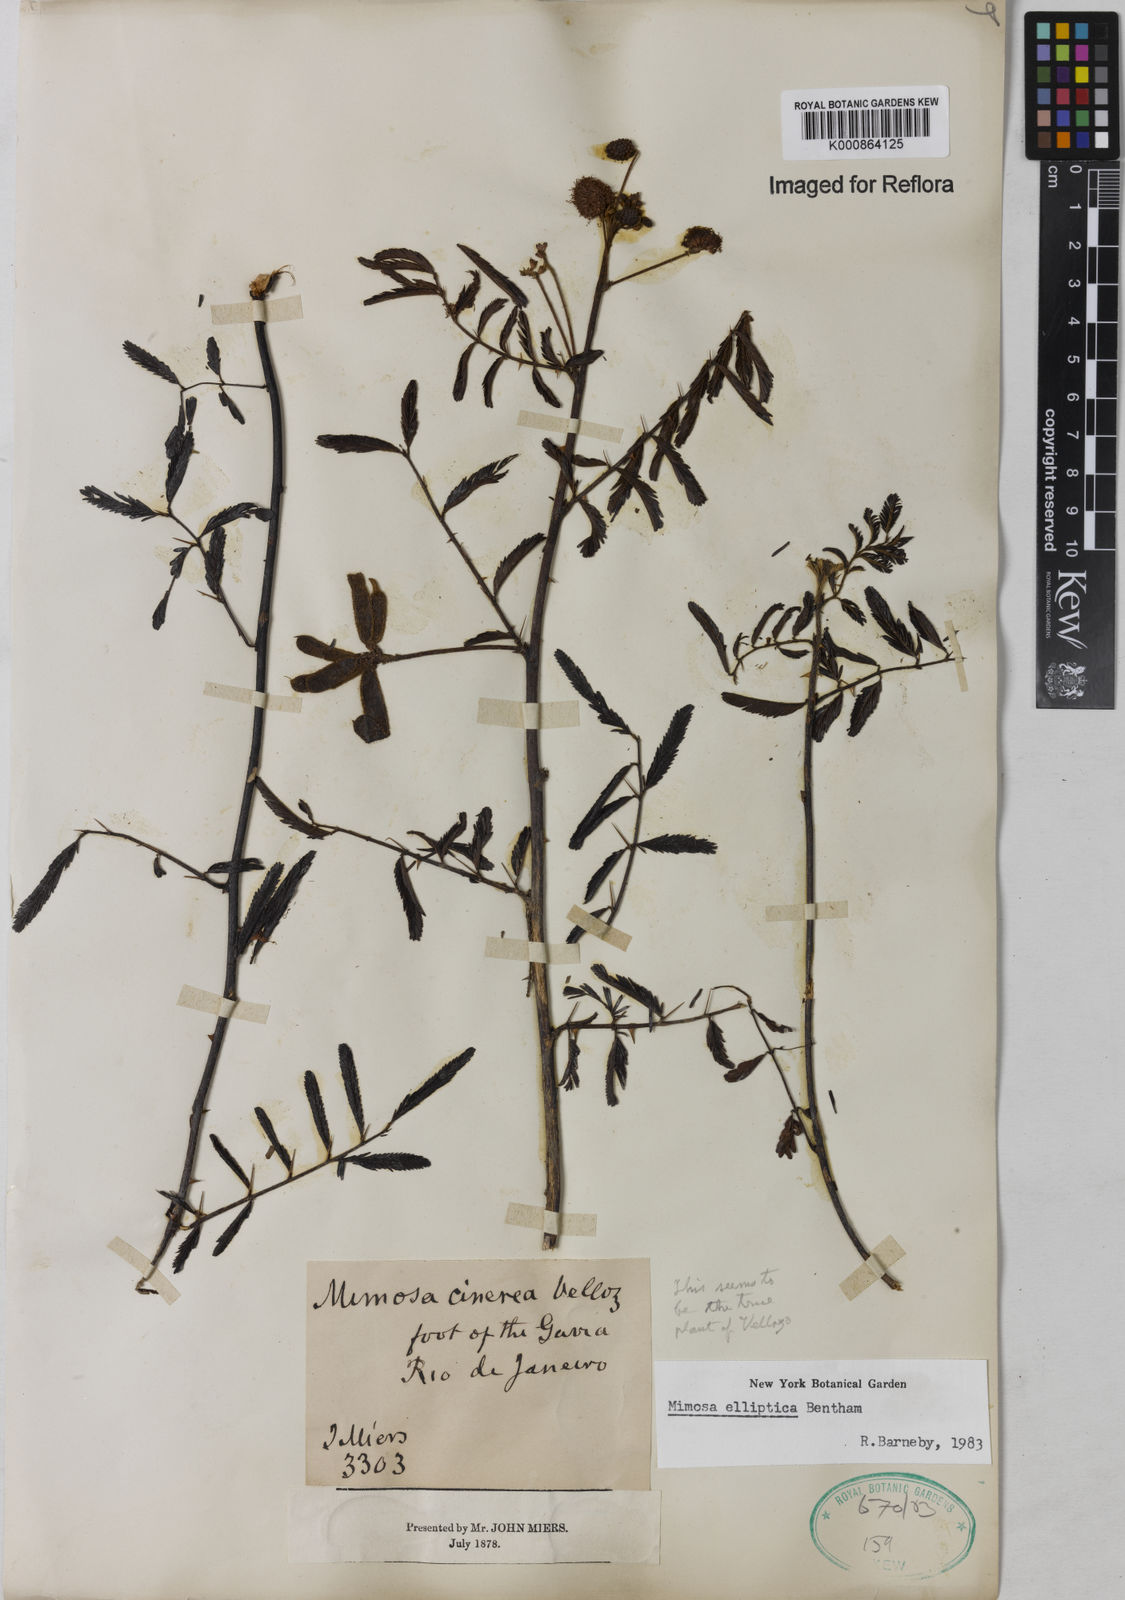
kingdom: Plantae
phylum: Tracheophyta
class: Magnoliopsida
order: Fabales
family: Fabaceae
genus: Mimosa
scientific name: Mimosa elliptica
